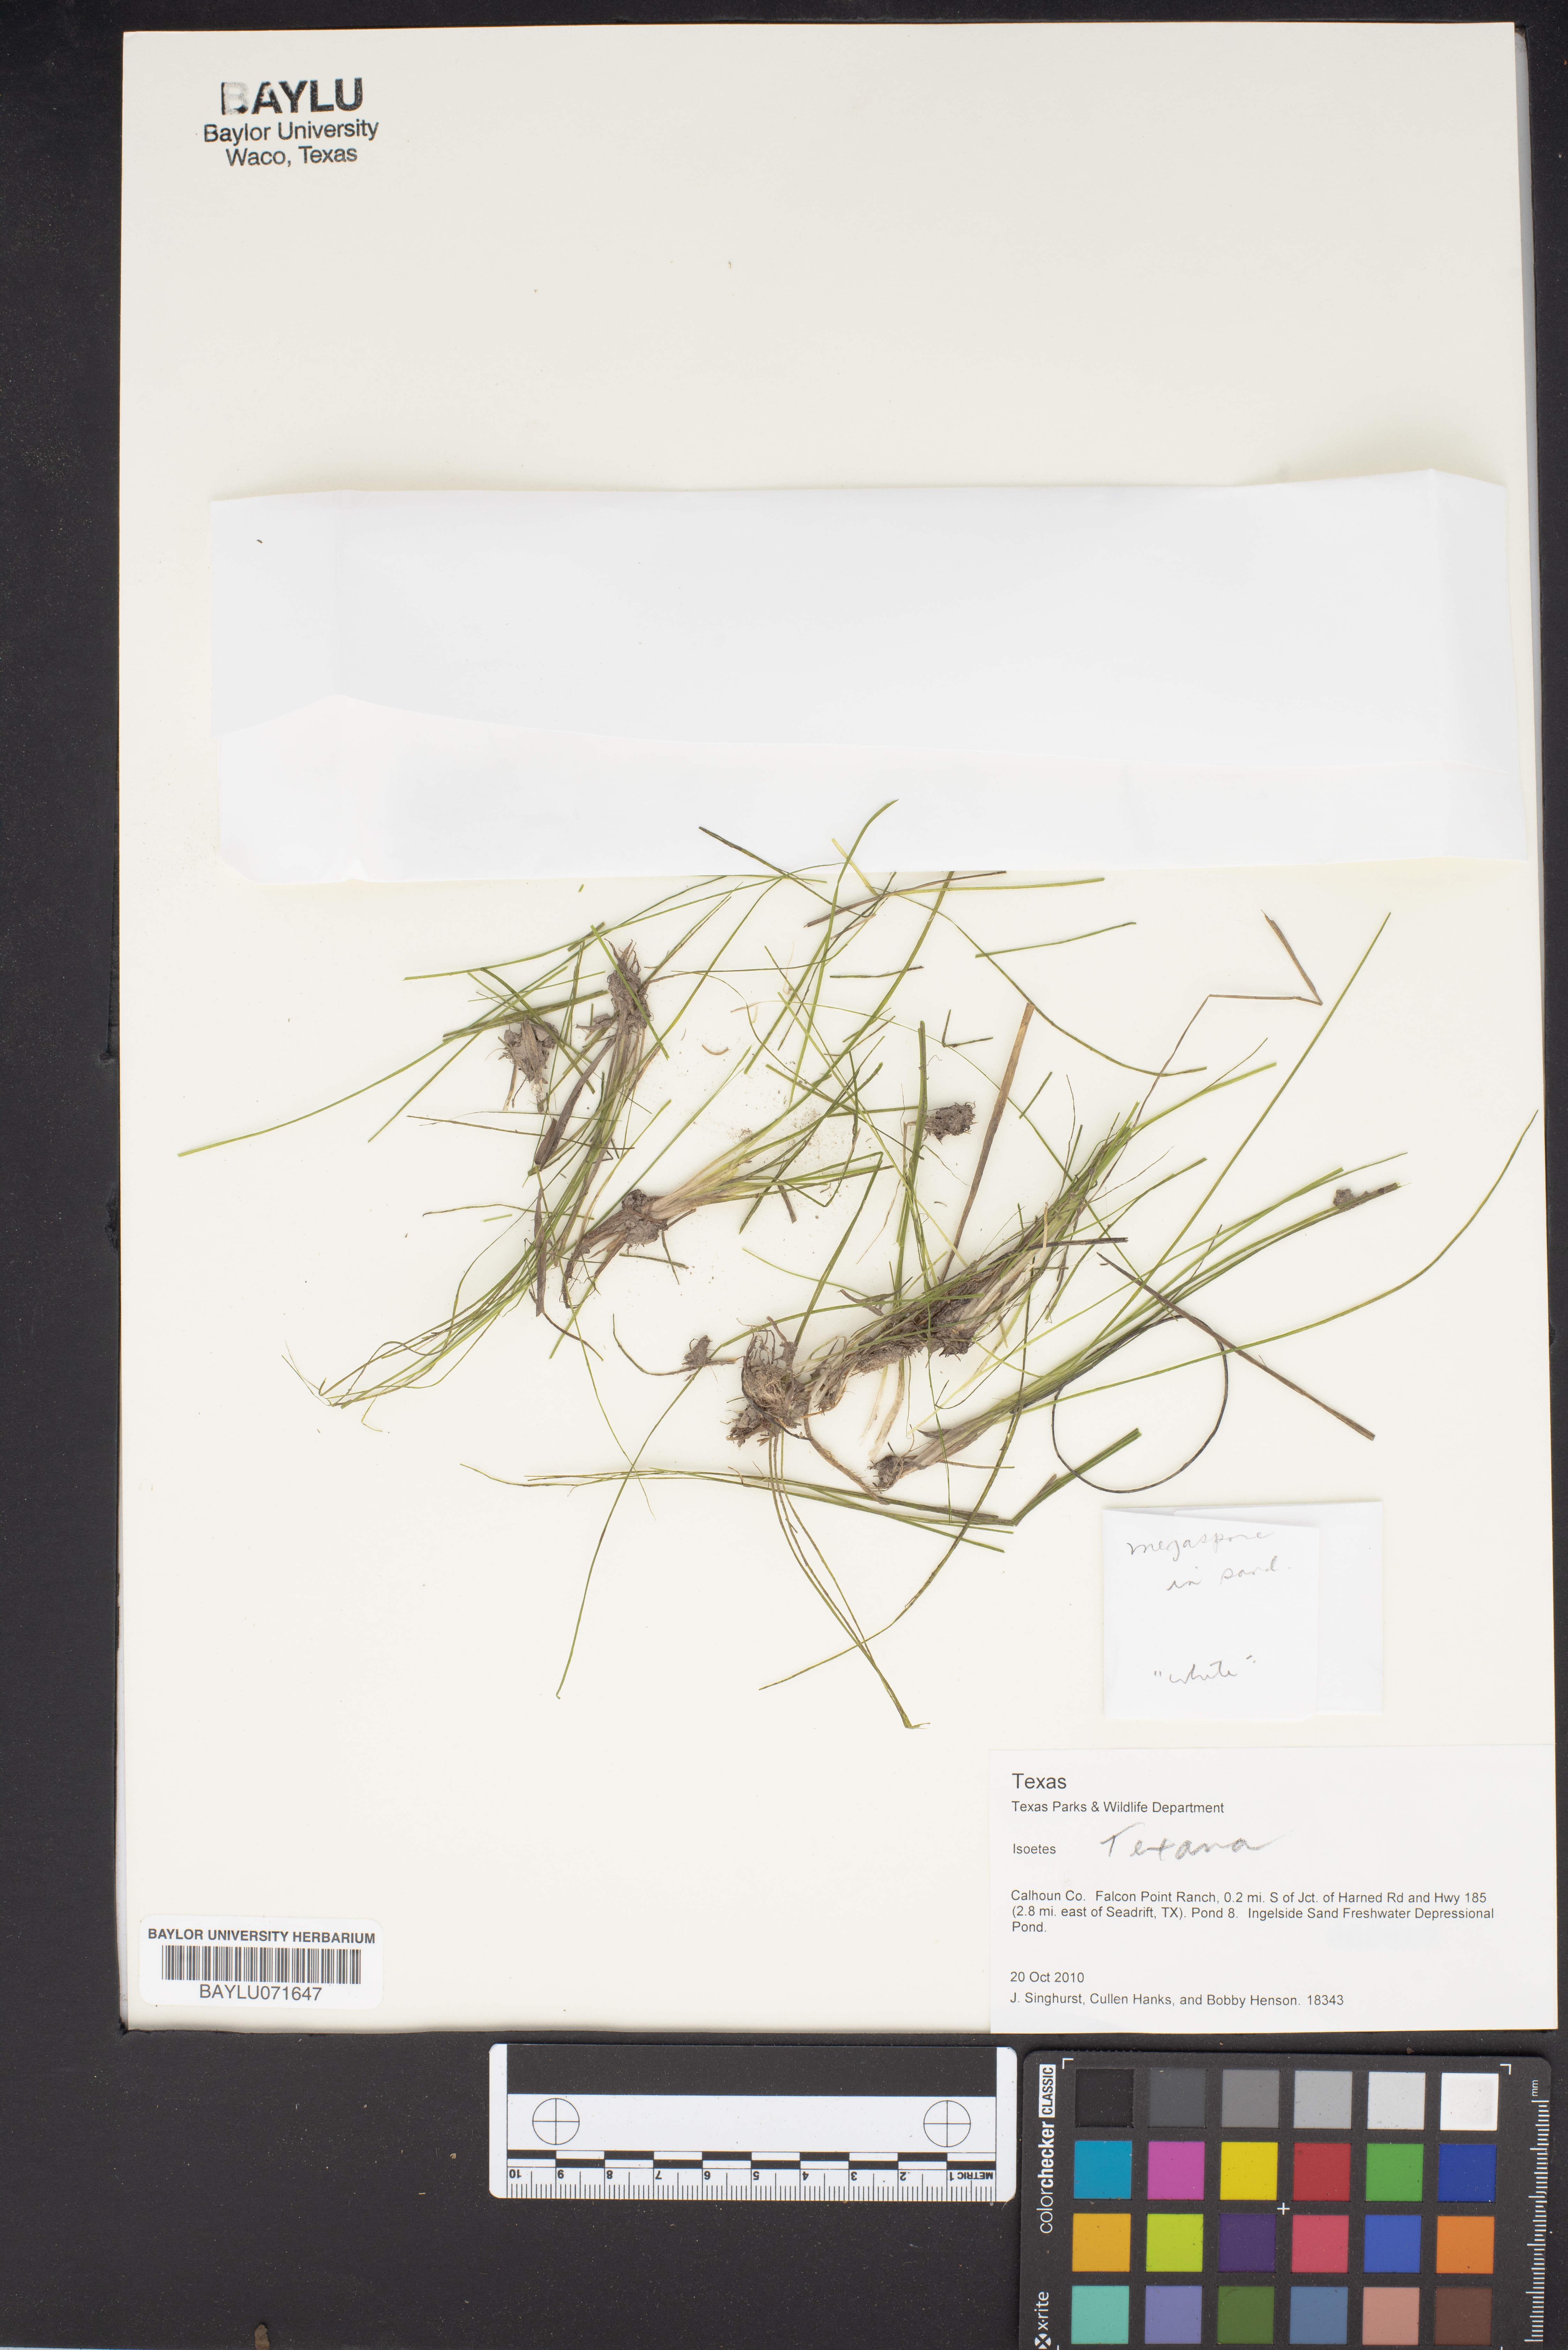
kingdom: Plantae
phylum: Tracheophyta
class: Lycopodiopsida
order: Isoetales
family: Isoetaceae
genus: Isoetes
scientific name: Isoetes texana
